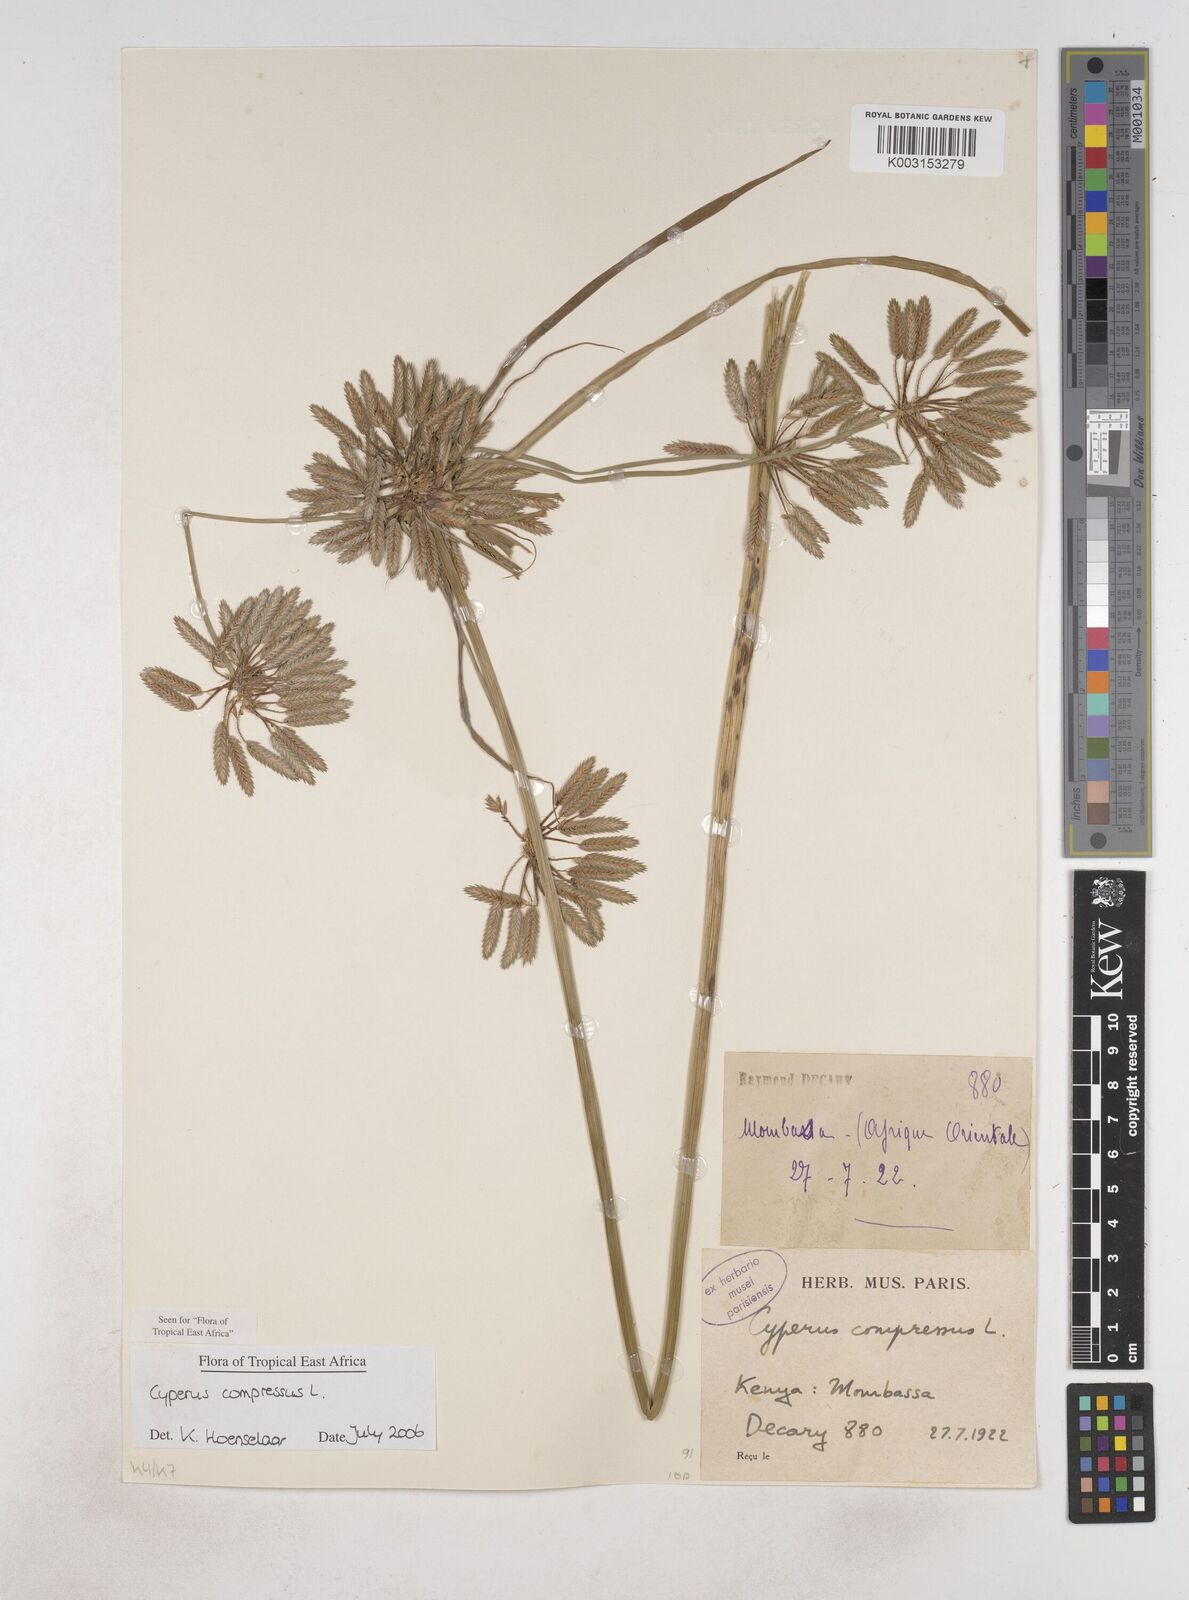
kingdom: Plantae
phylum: Tracheophyta
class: Liliopsida
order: Poales
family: Cyperaceae
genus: Cyperus
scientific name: Cyperus compressus
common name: Poorland flatsedge
